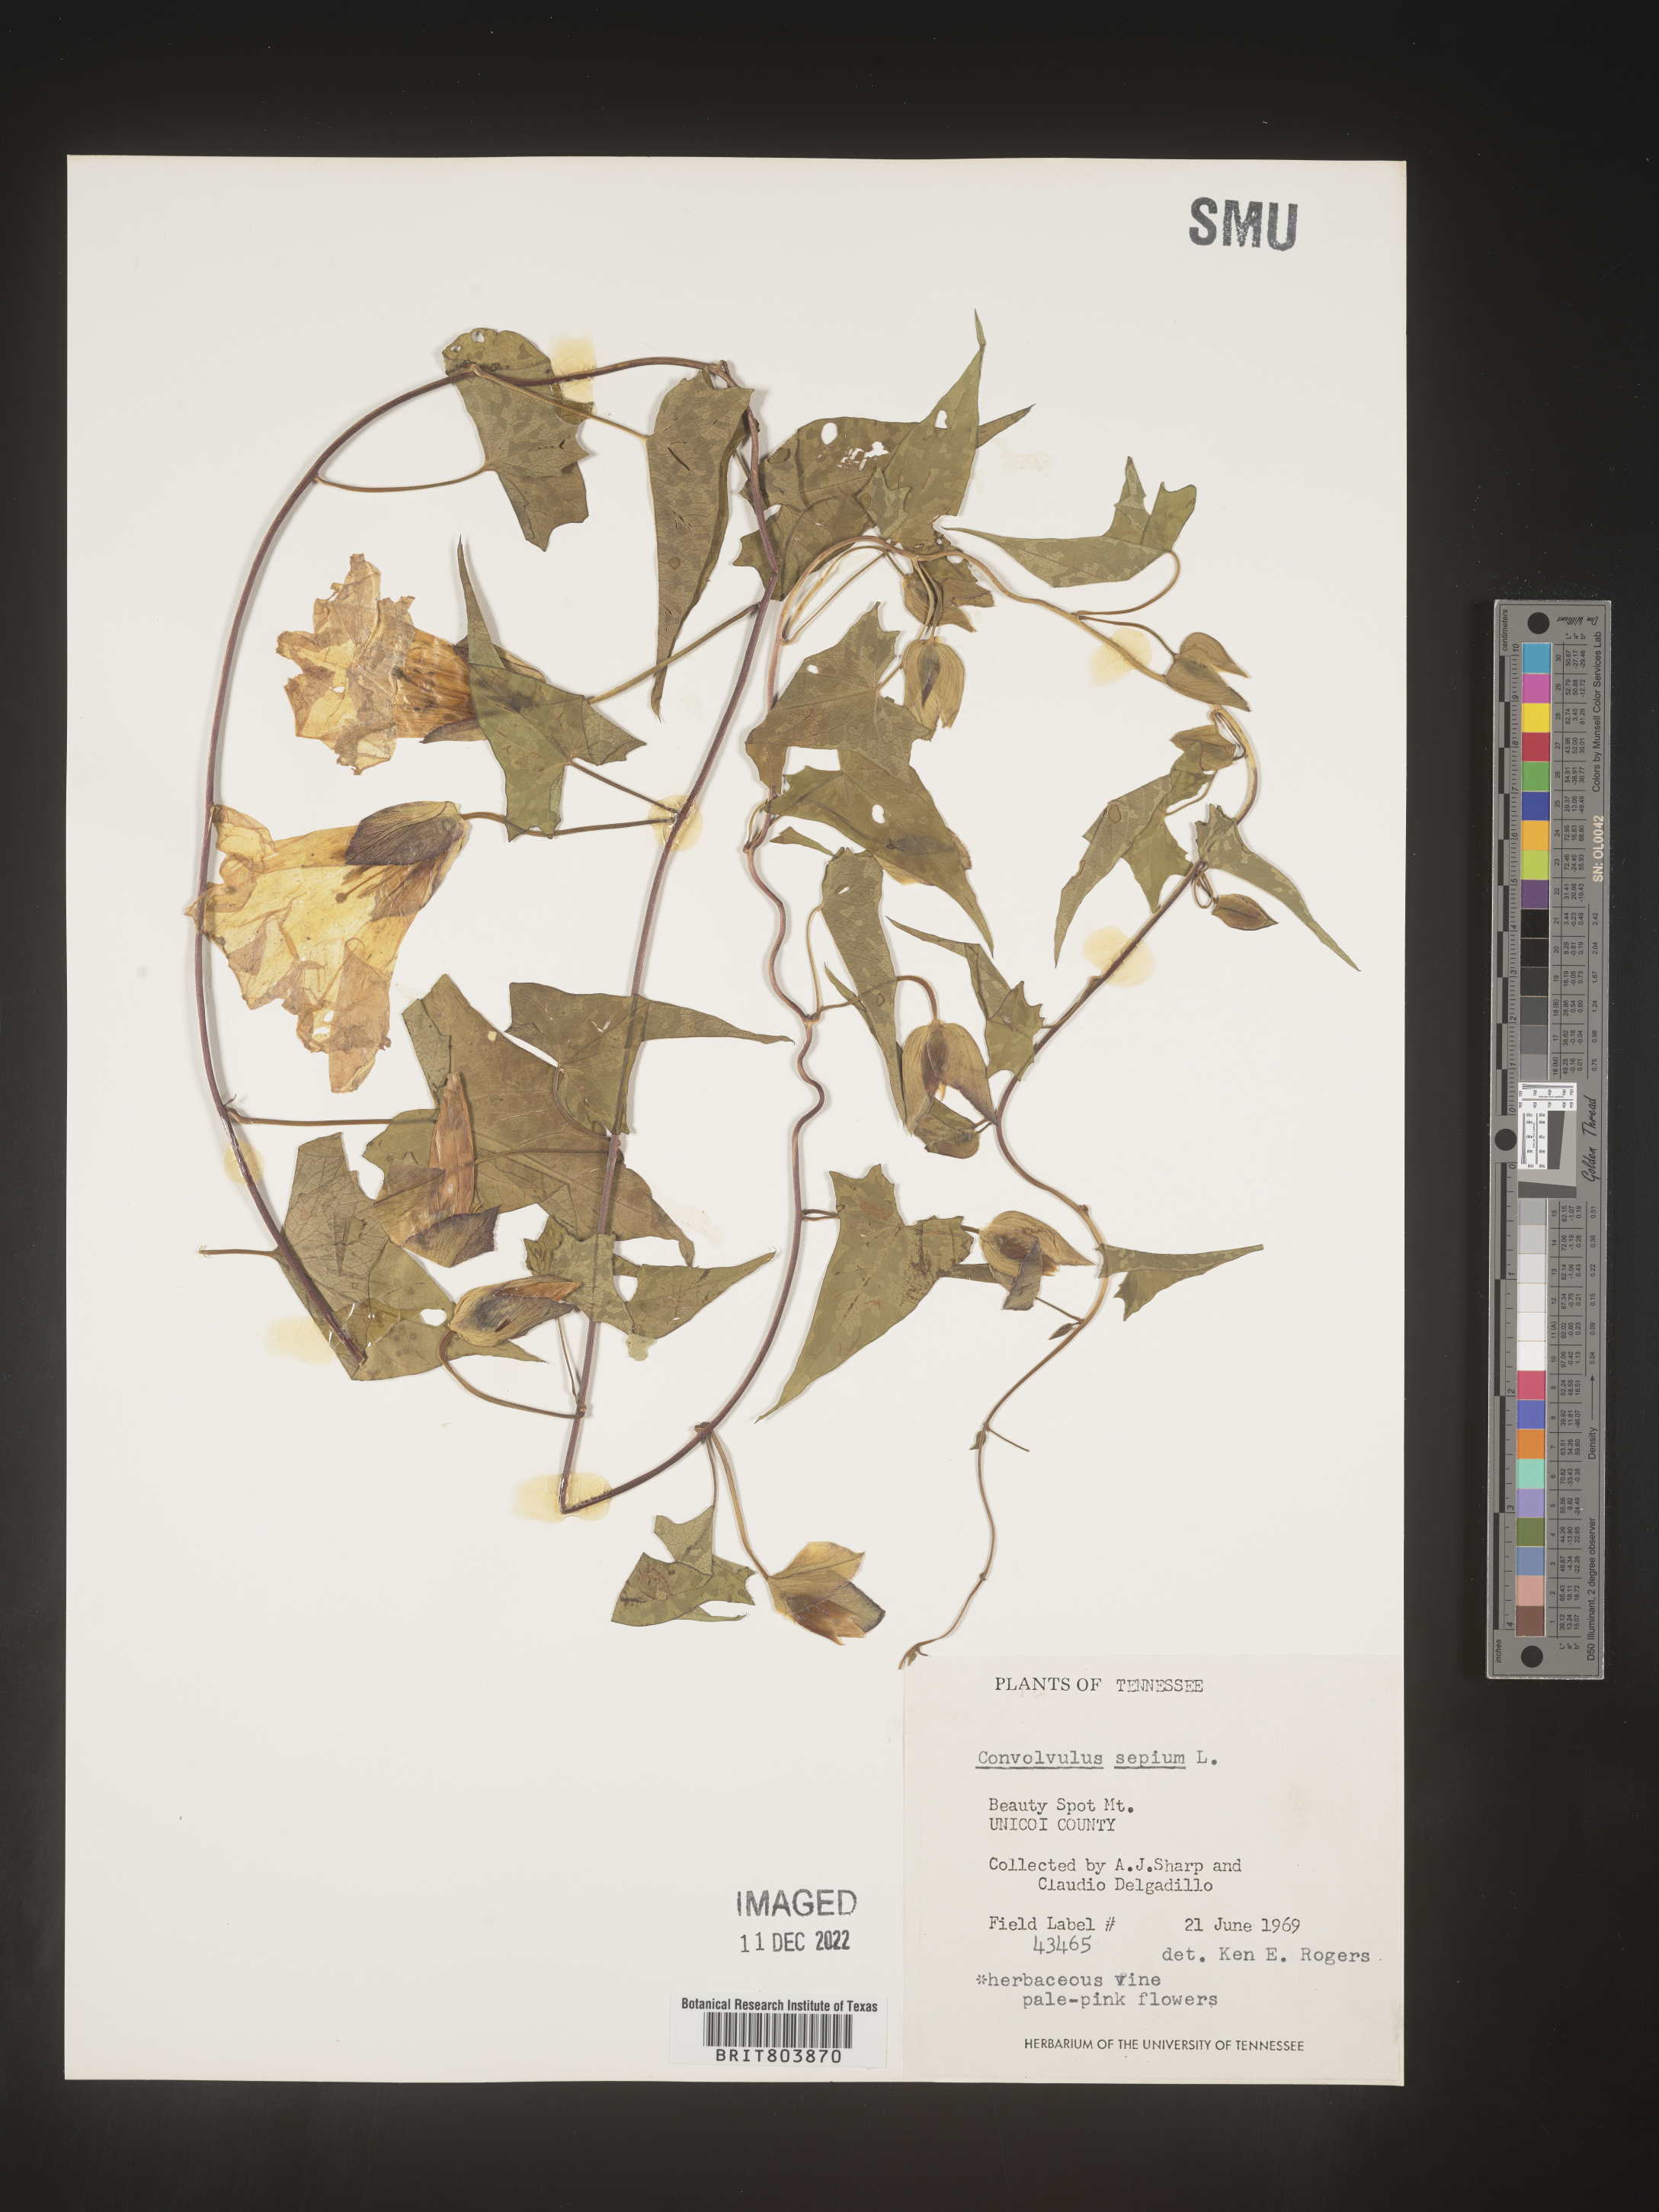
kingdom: Plantae
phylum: Tracheophyta
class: Magnoliopsida
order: Solanales
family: Convolvulaceae
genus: Calystegia
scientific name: Calystegia sepium
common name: Hedge bindweed
